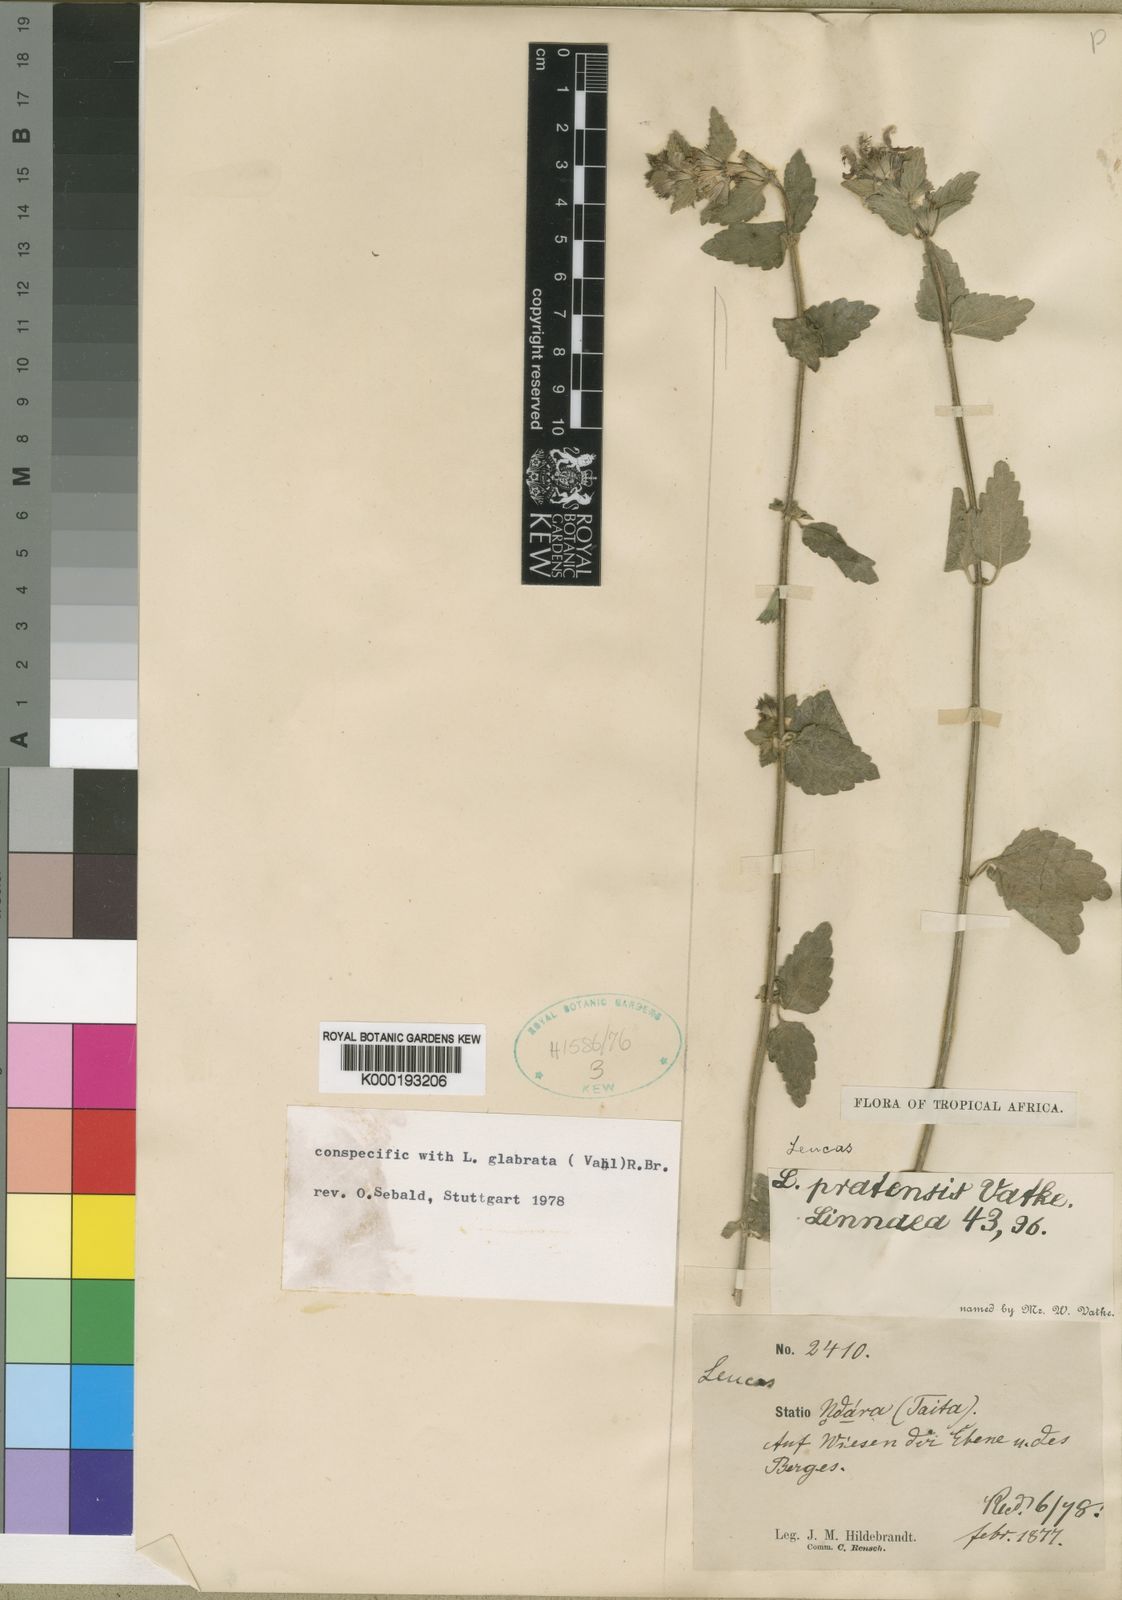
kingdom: Plantae
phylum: Tracheophyta
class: Magnoliopsida
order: Lamiales
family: Lamiaceae
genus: Leucas
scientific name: Leucas glabrata
